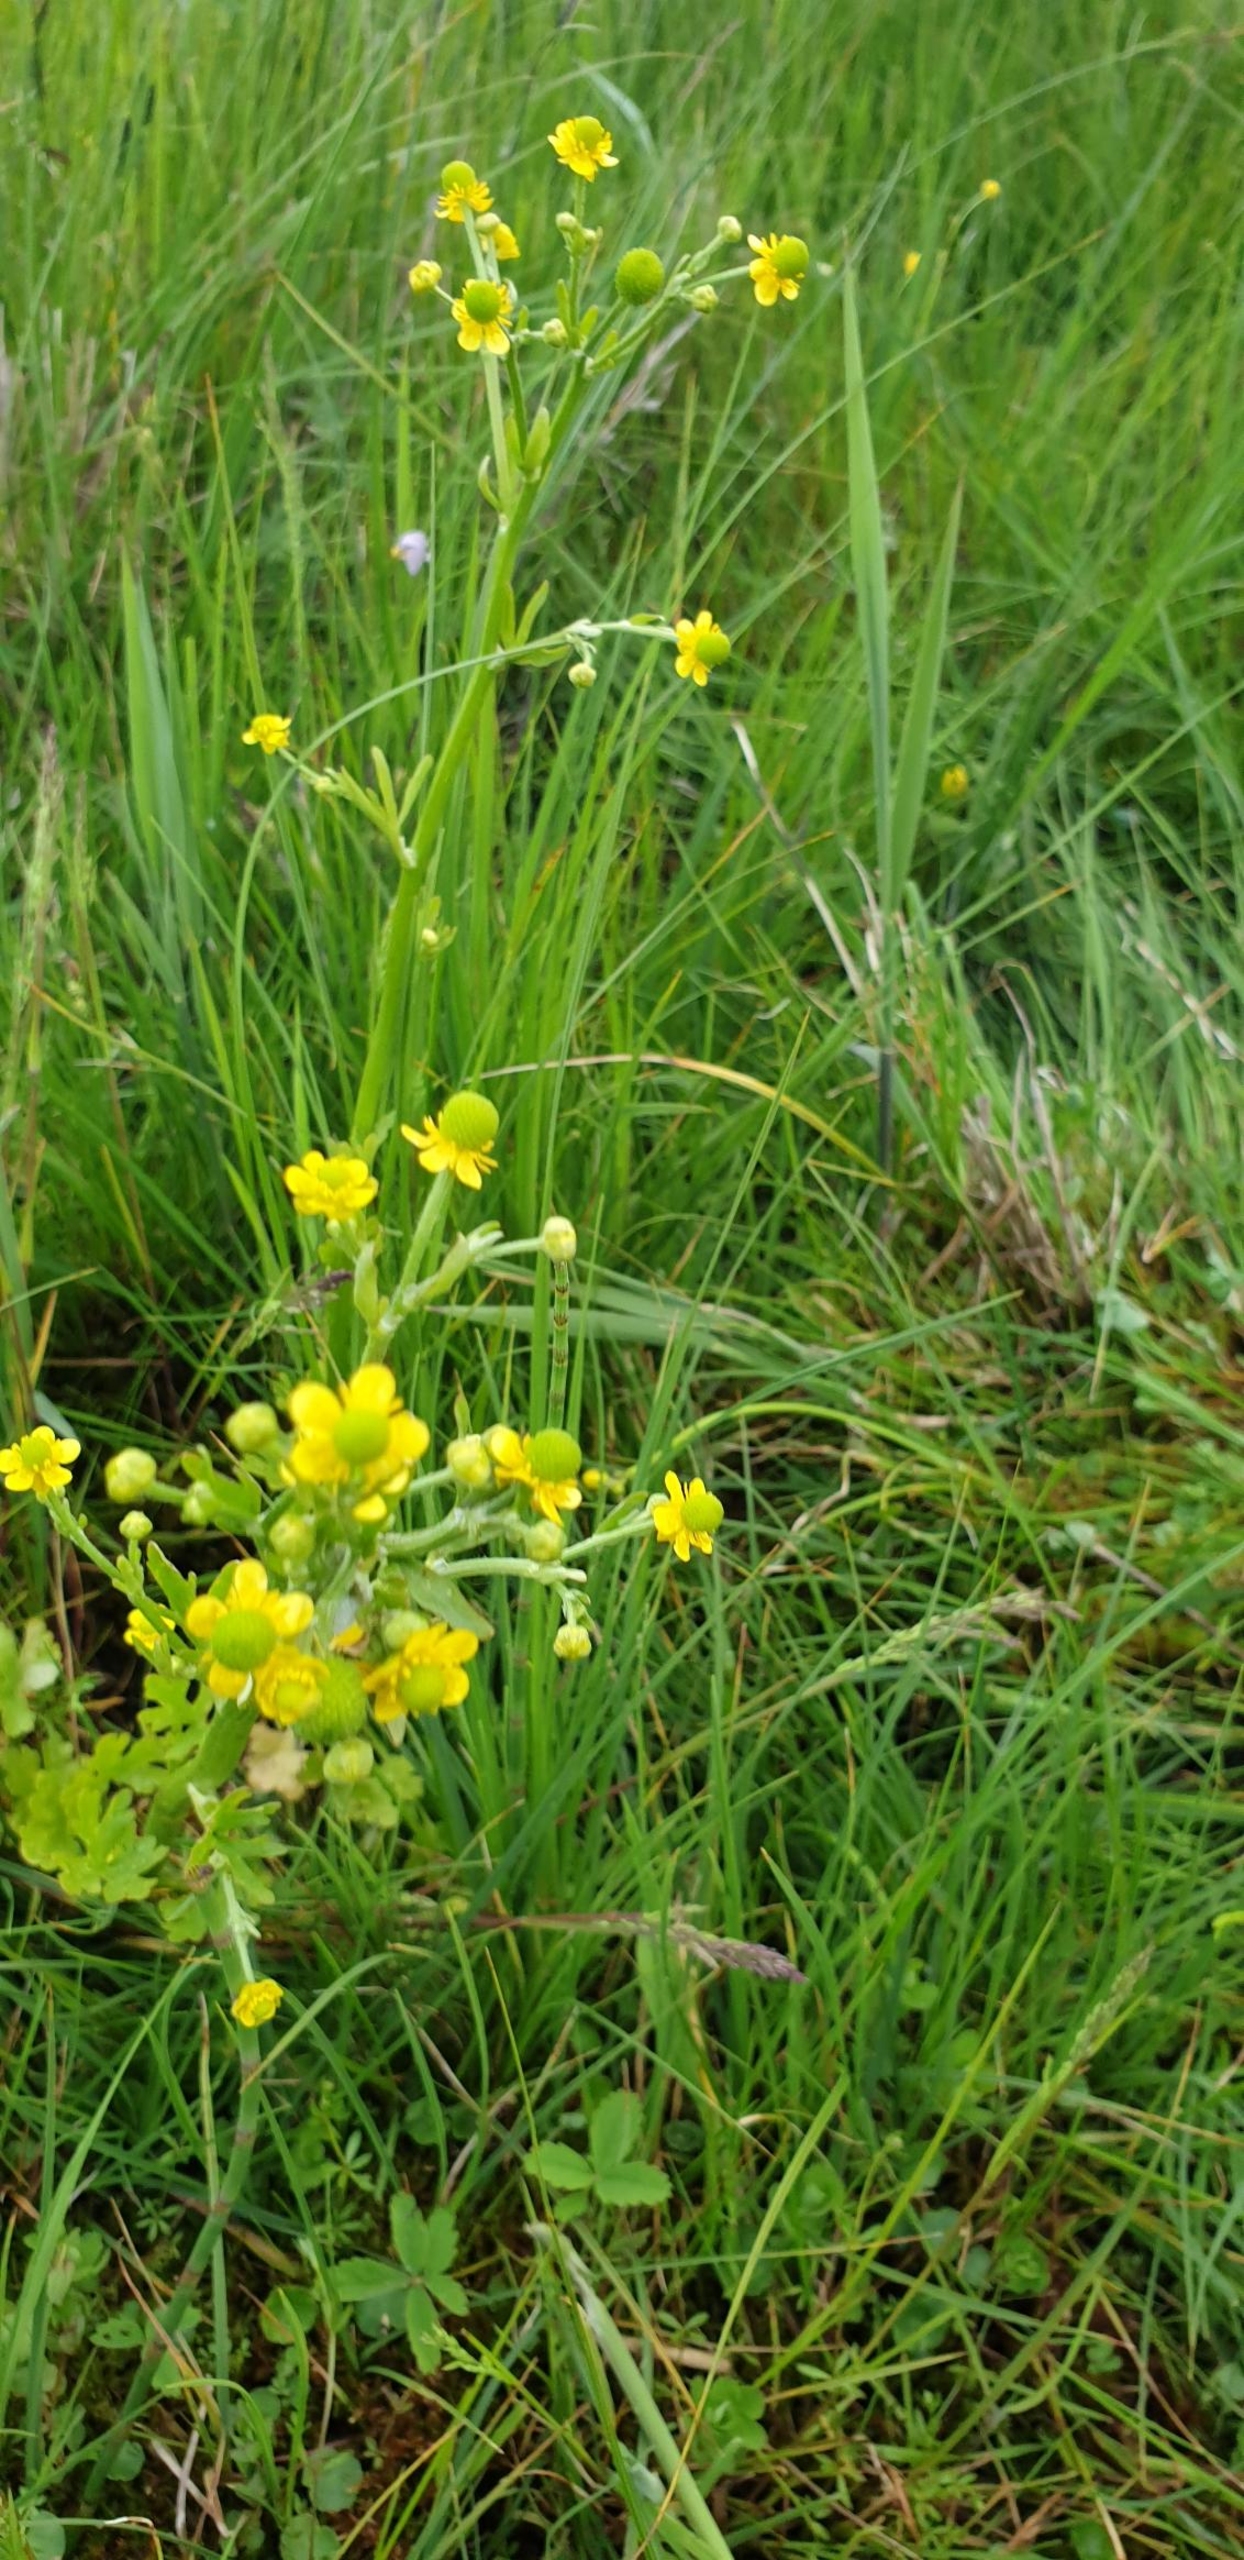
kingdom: Plantae
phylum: Tracheophyta
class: Magnoliopsida
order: Ranunculales
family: Ranunculaceae
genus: Ranunculus
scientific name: Ranunculus sceleratus
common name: Tigger-ranunkel
